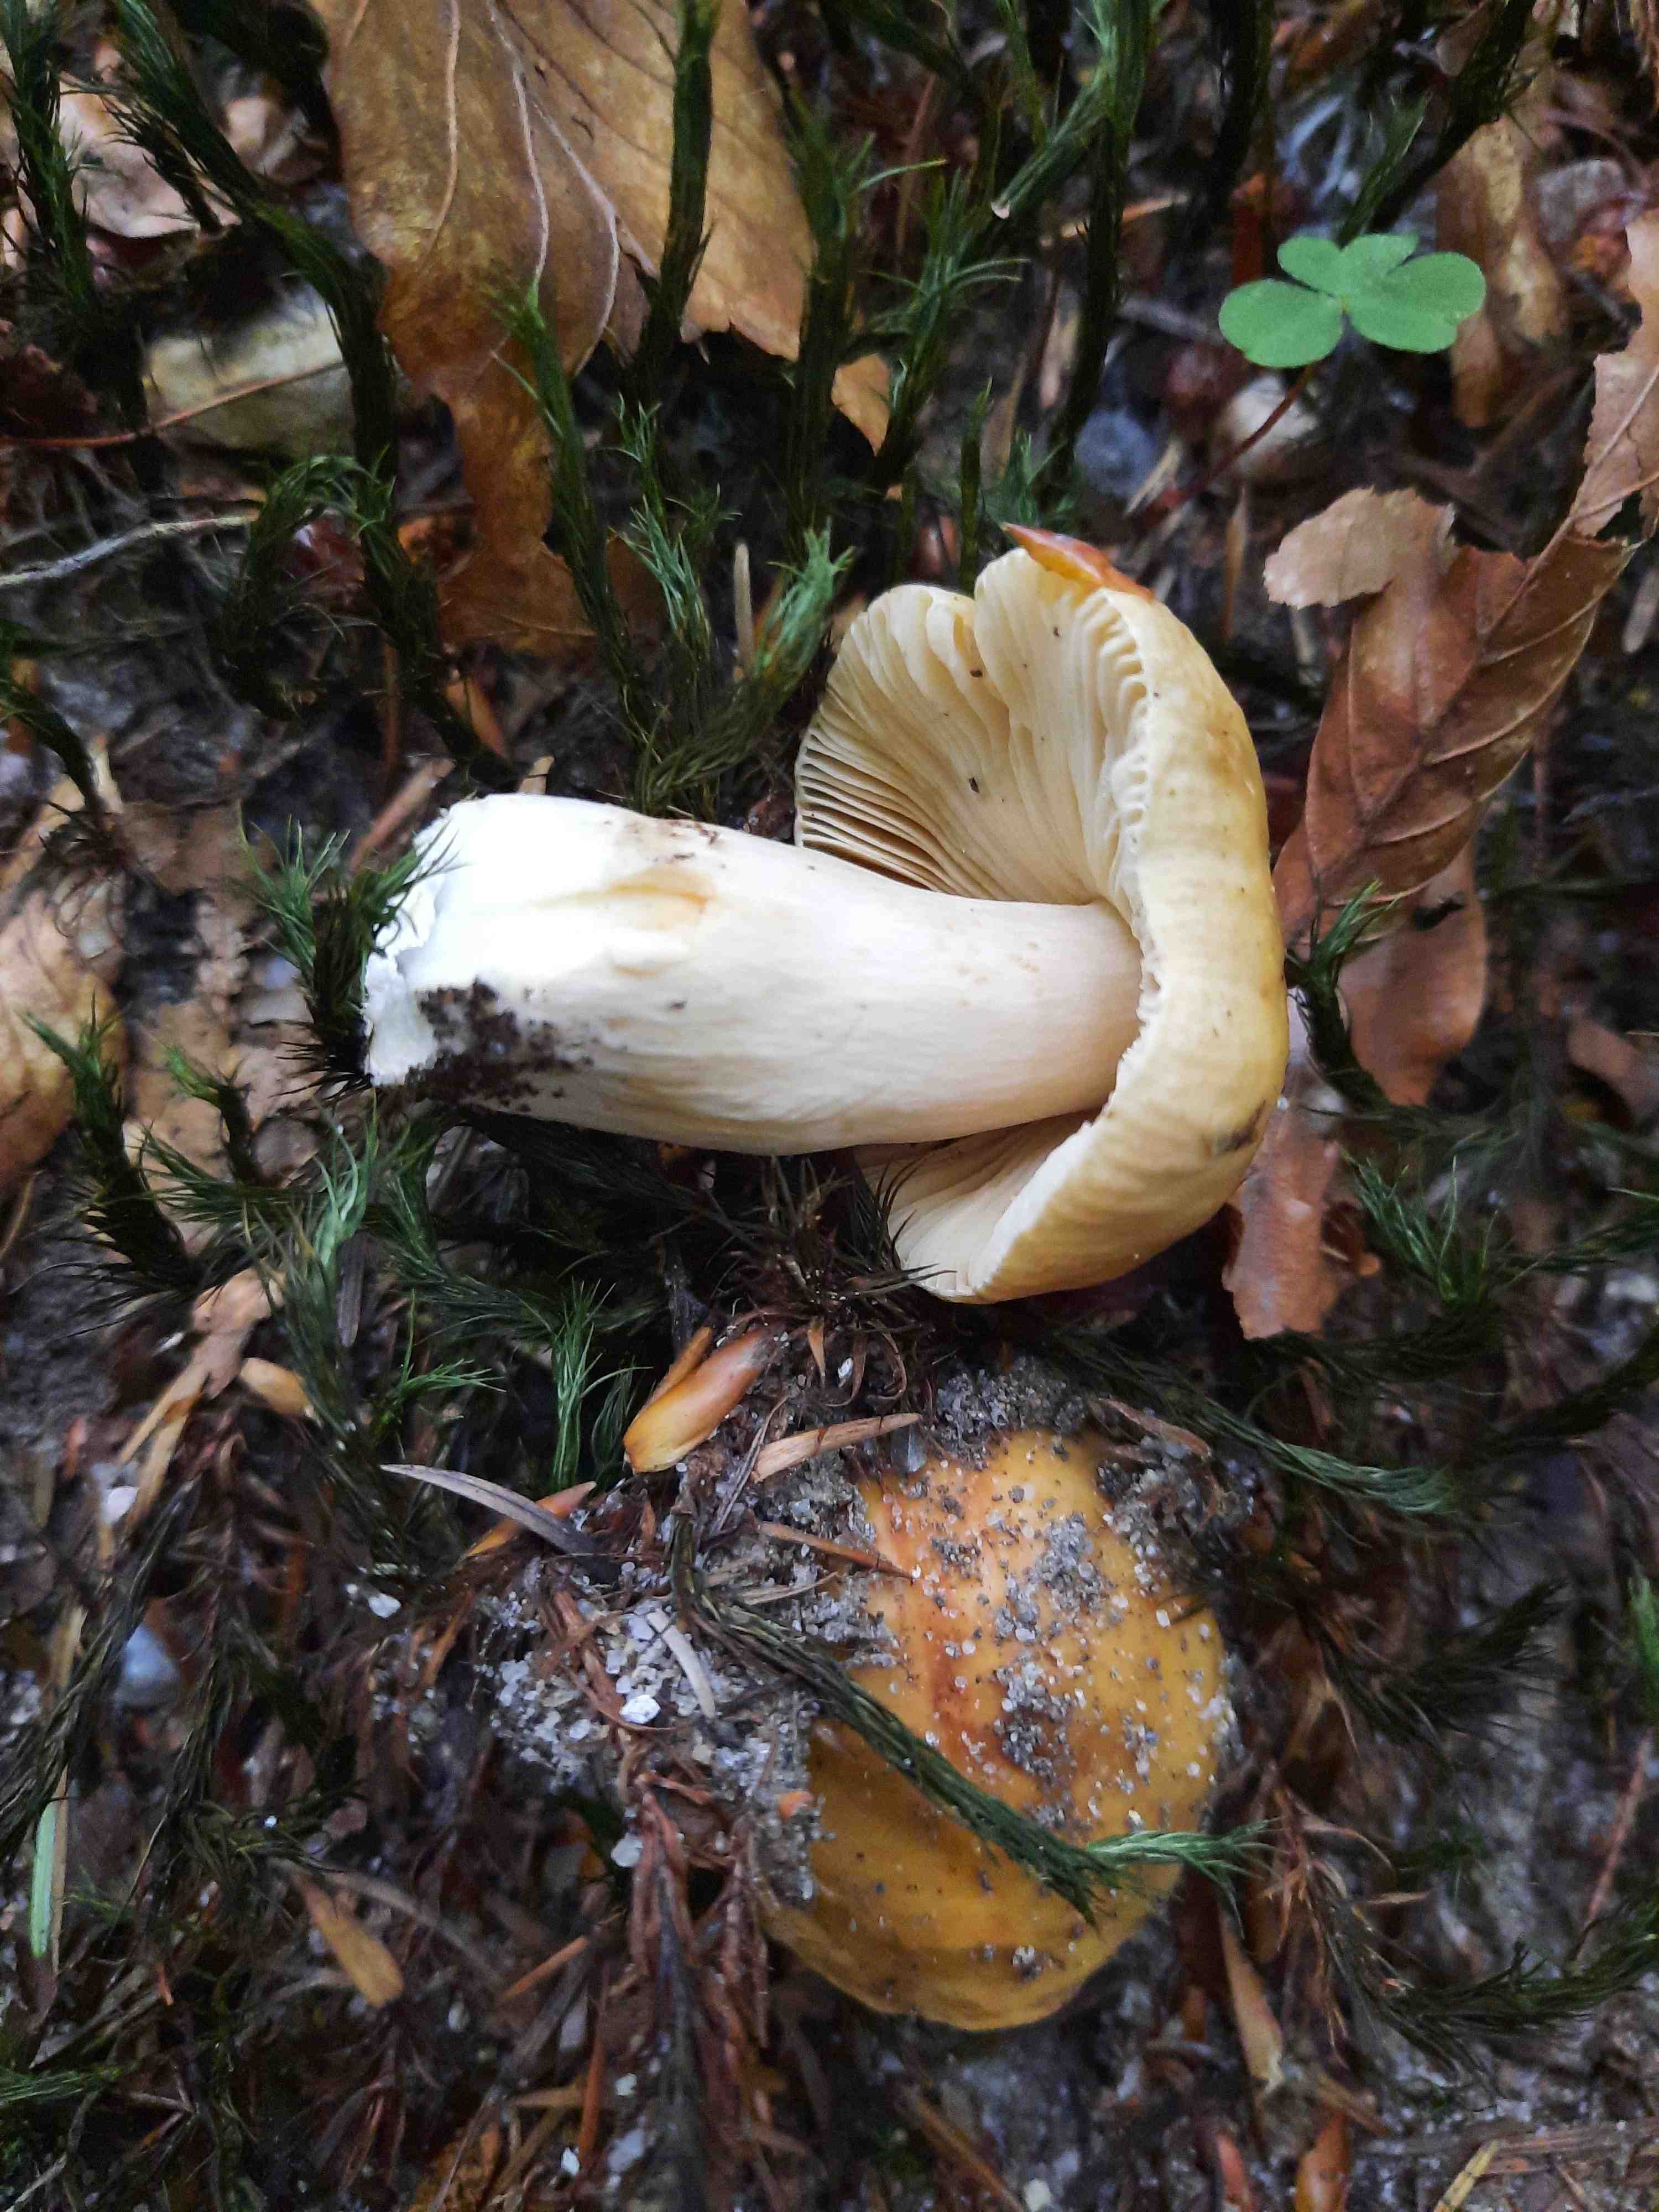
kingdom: Fungi
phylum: Basidiomycota
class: Agaricomycetes
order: Russulales
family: Russulaceae
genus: Russula
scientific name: Russula fellea
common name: galde-skørhat
